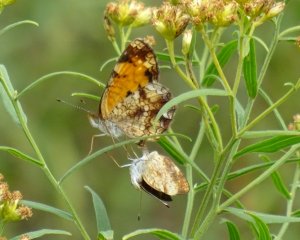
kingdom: Animalia
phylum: Arthropoda
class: Insecta
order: Lepidoptera
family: Nymphalidae
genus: Phyciodes
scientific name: Phyciodes tharos
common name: Pearl Crescent
